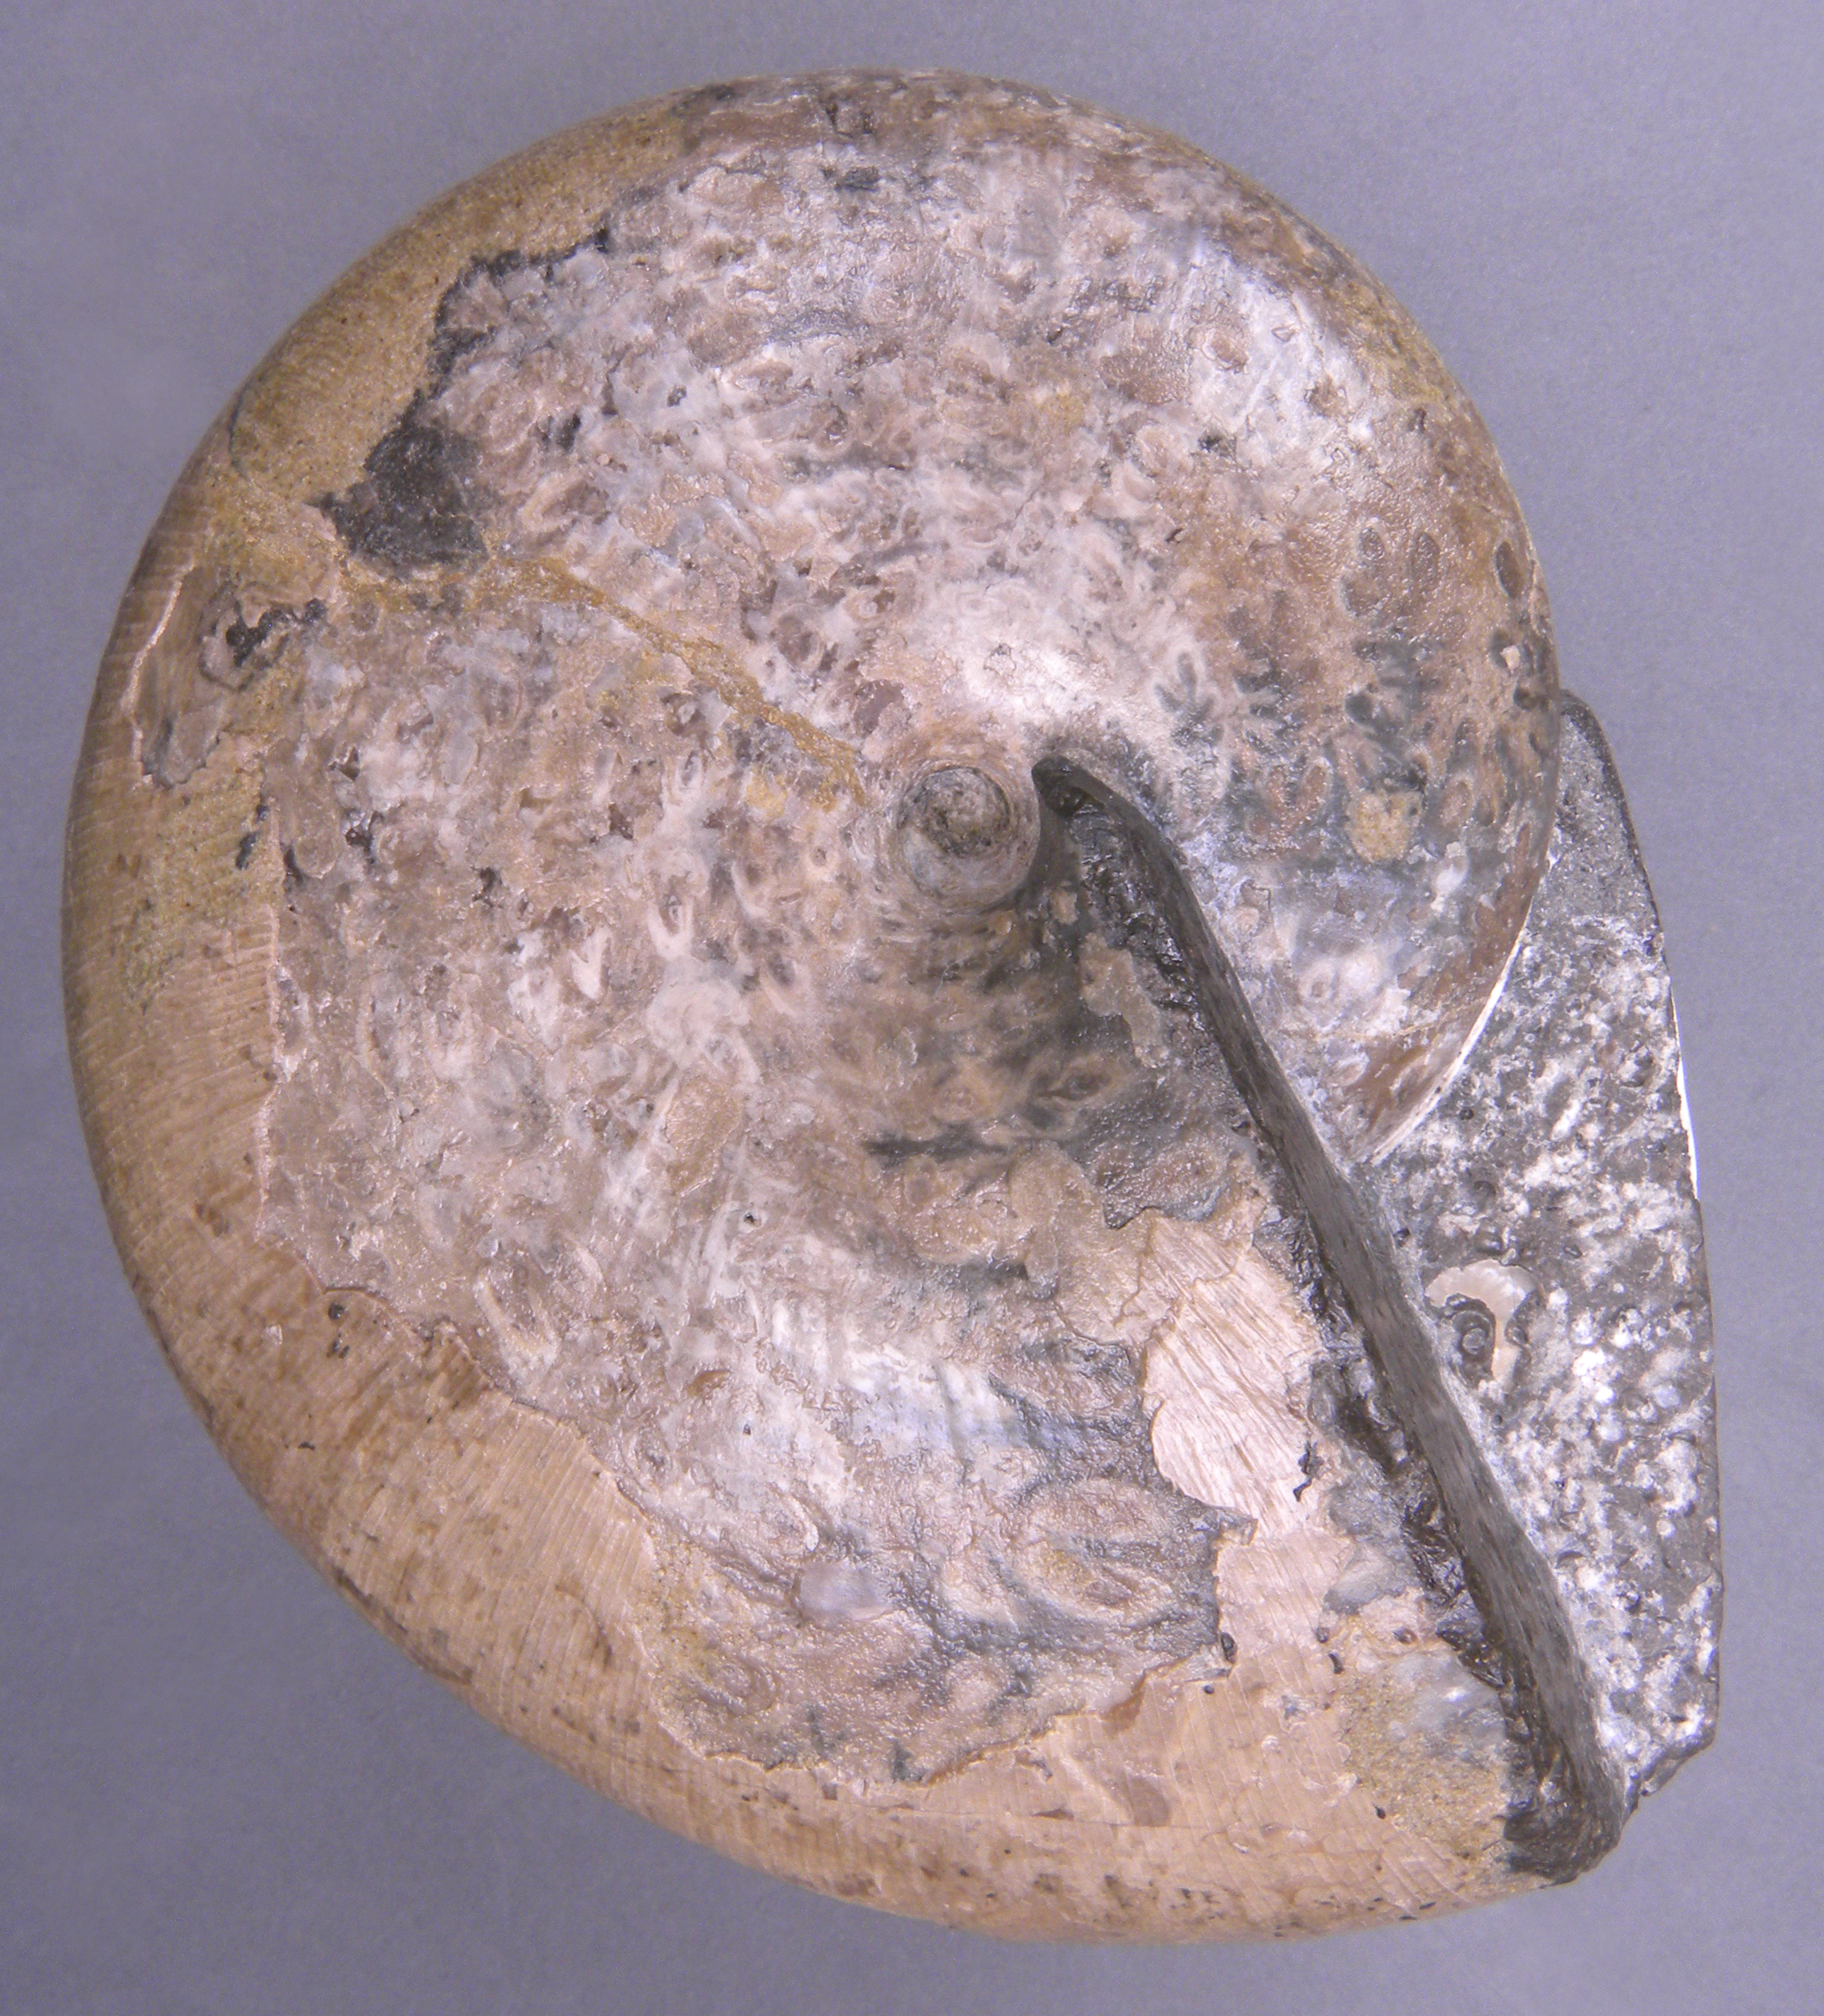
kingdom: Animalia
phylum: Mollusca
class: Cephalopoda
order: Phylloceratida
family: Phylloceratidae
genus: Phylloceras
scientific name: Phylloceras heterophyllum
